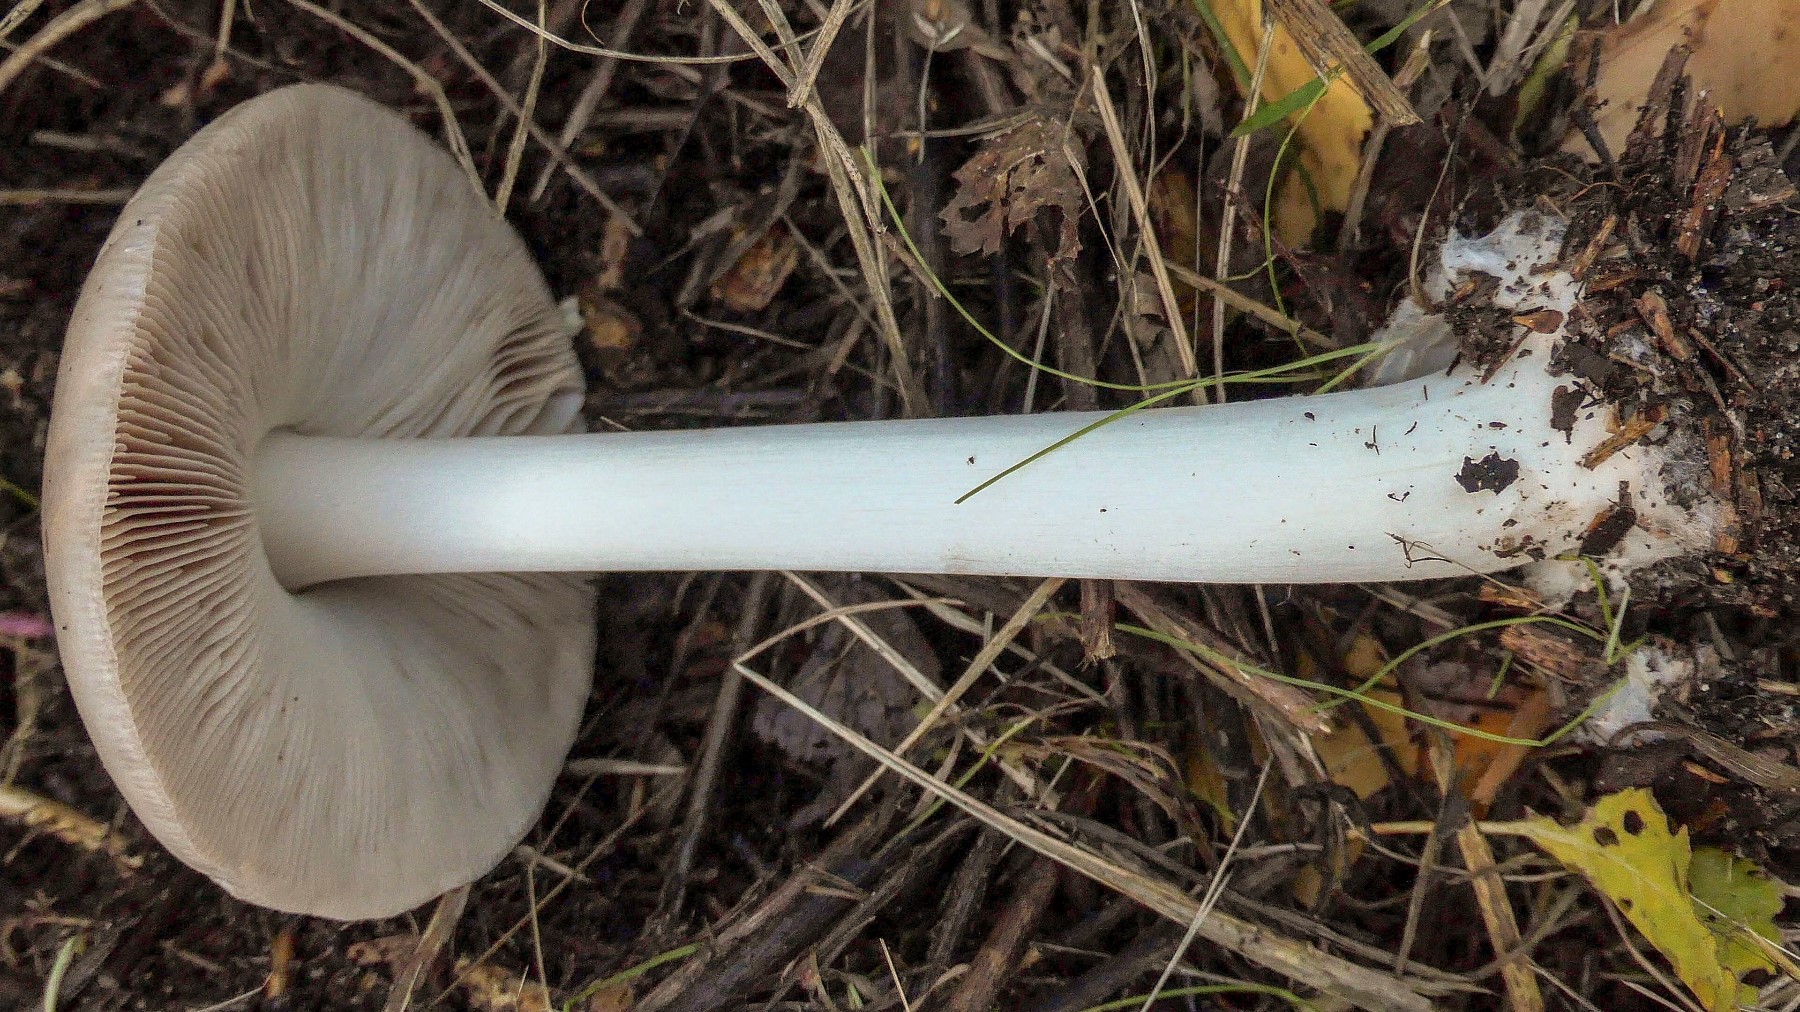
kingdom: Fungi
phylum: Basidiomycota
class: Agaricomycetes
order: Agaricales
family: Pluteaceae
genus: Volvopluteus
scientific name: Volvopluteus gloiocephalus
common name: høj posesvamp
